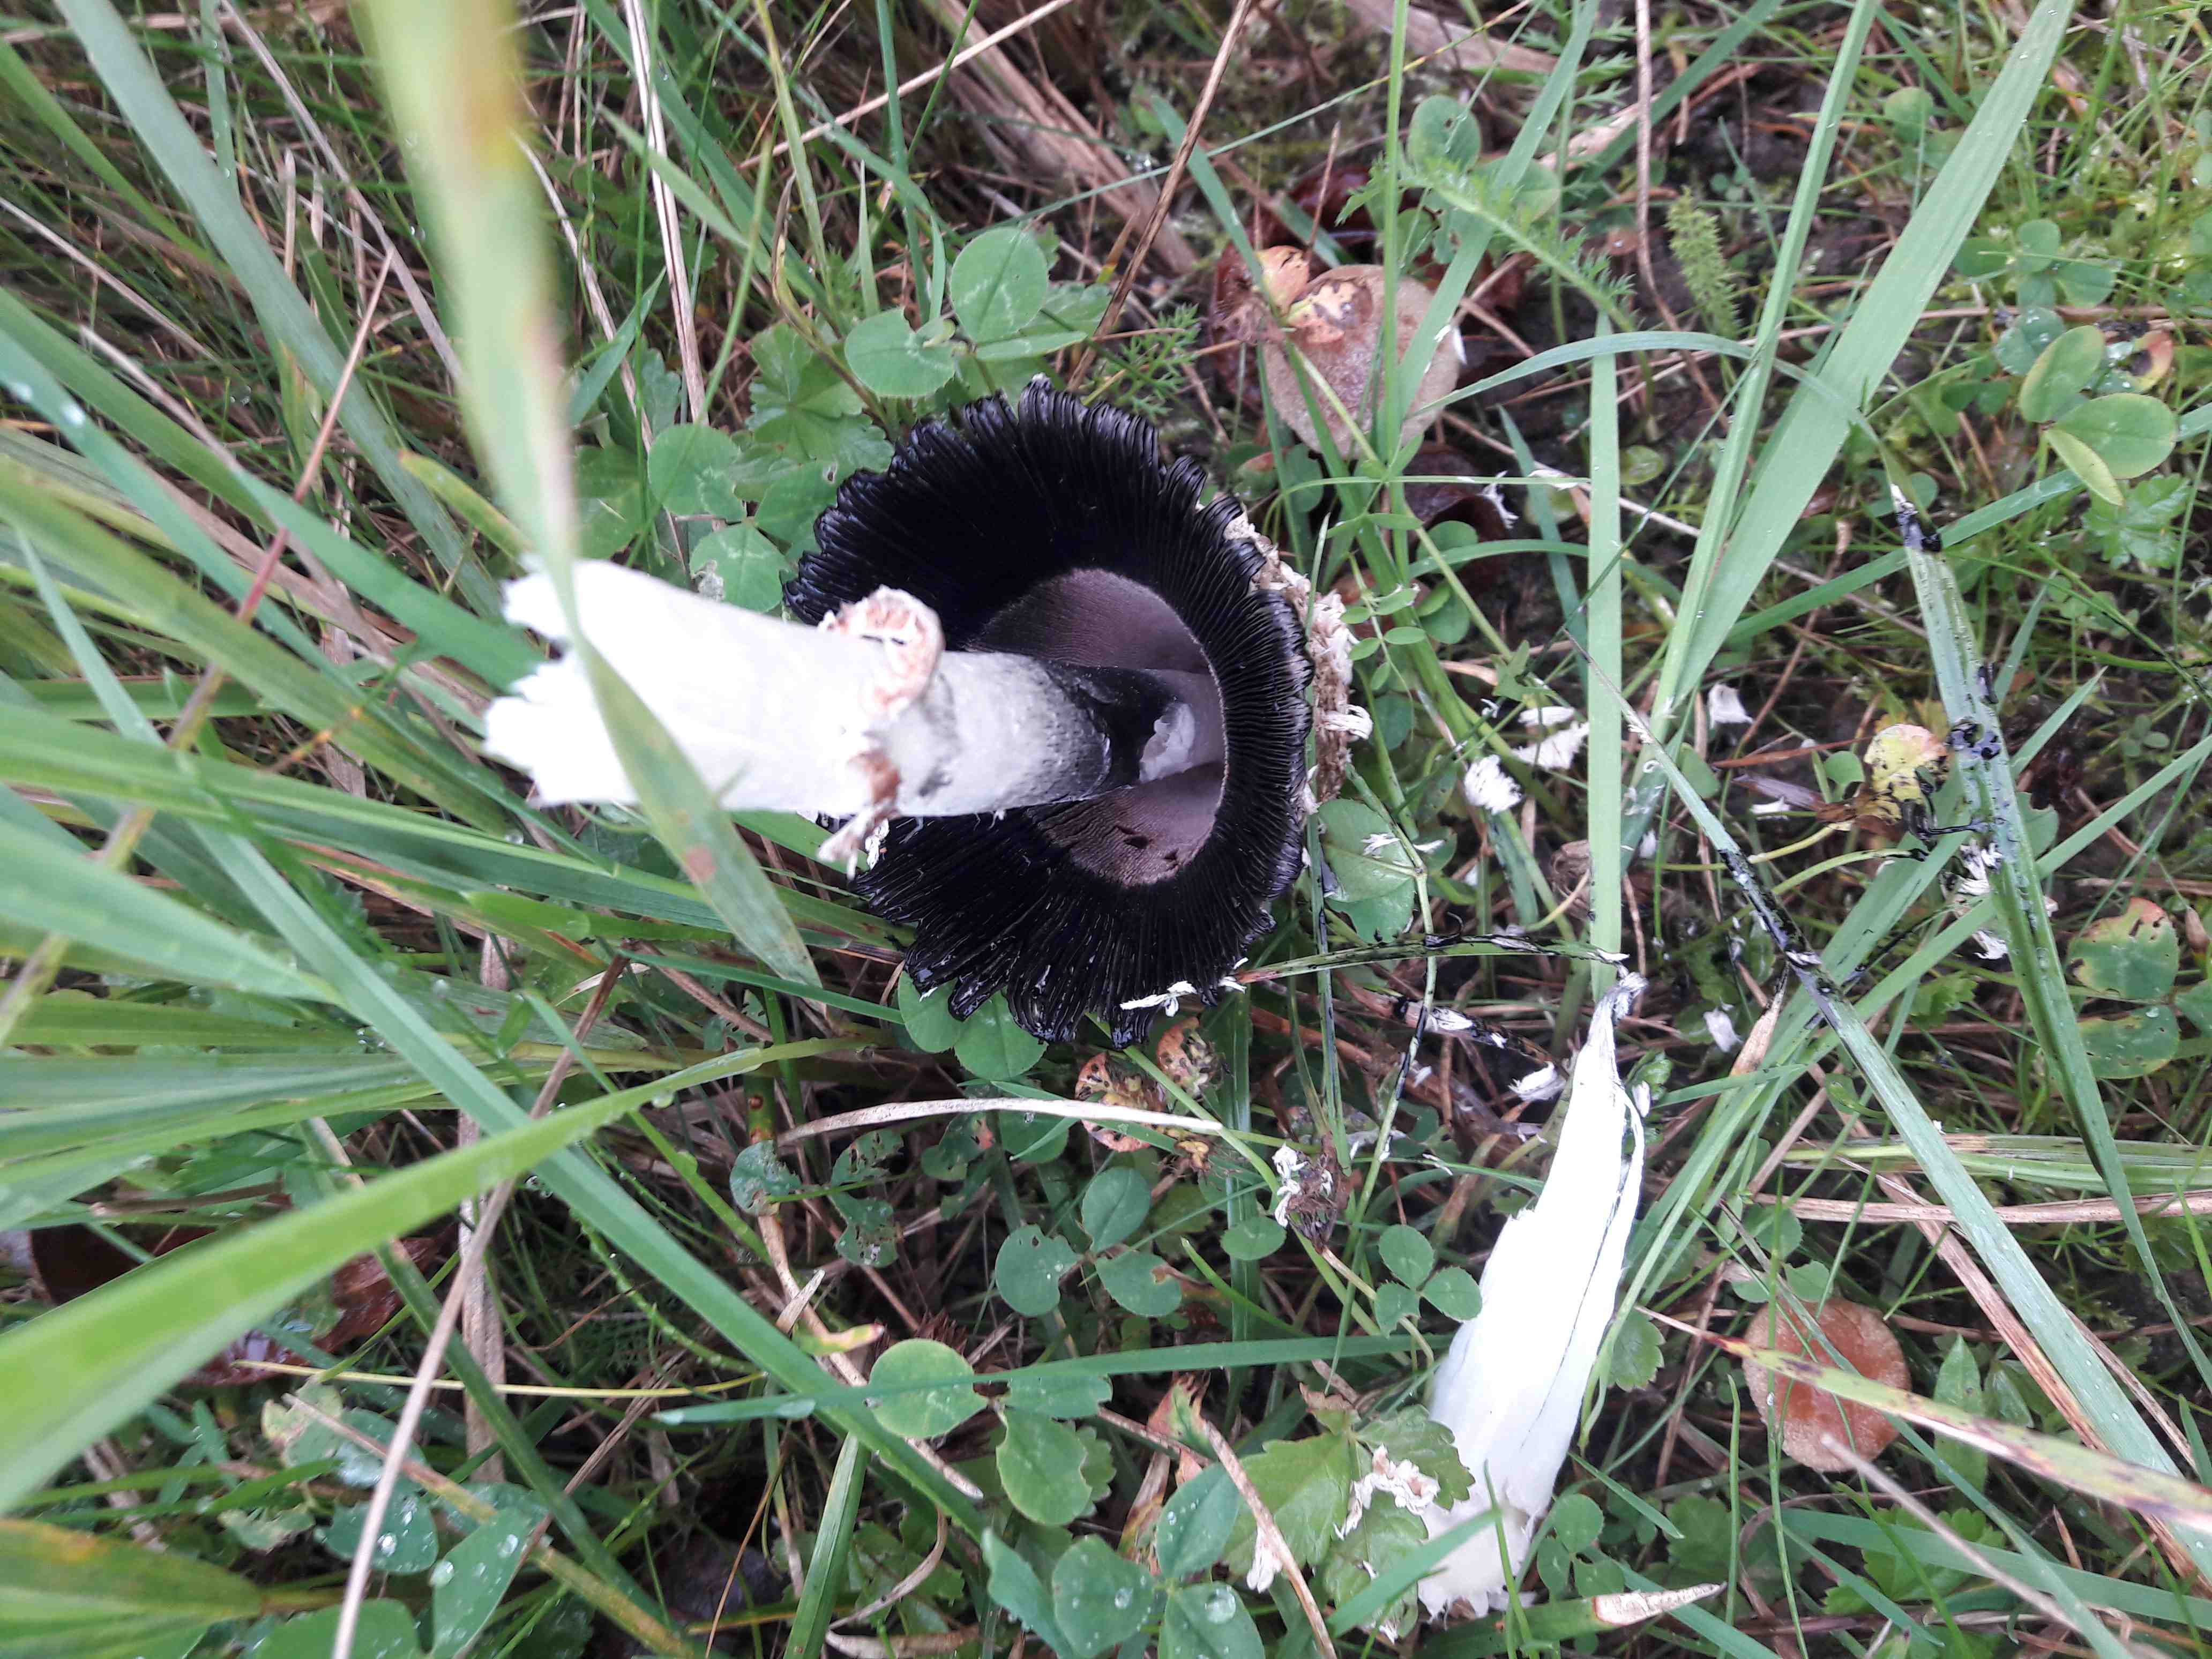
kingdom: Fungi
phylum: Basidiomycota
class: Agaricomycetes
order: Agaricales
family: Agaricaceae
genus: Coprinus
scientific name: Coprinus comatus
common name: stor parykhat
